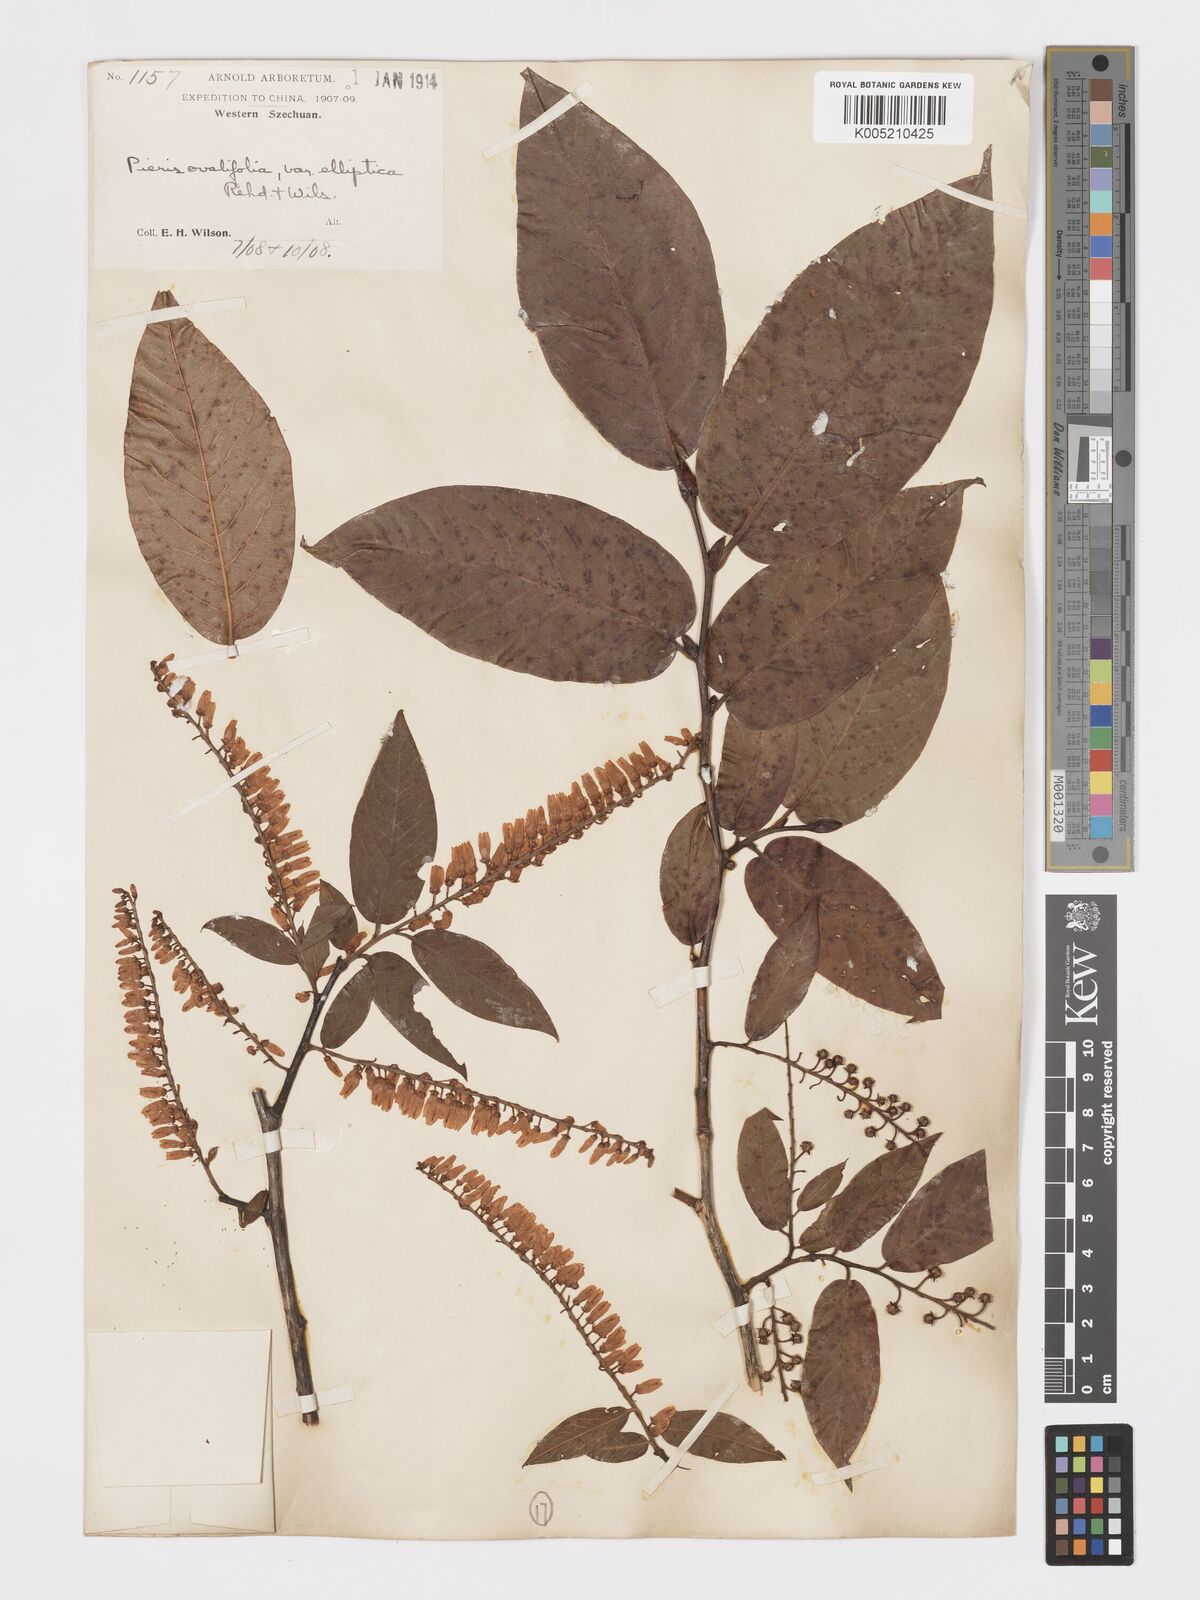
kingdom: Plantae
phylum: Tracheophyta
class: Magnoliopsida
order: Ericales
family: Ericaceae
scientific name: Ericaceae
